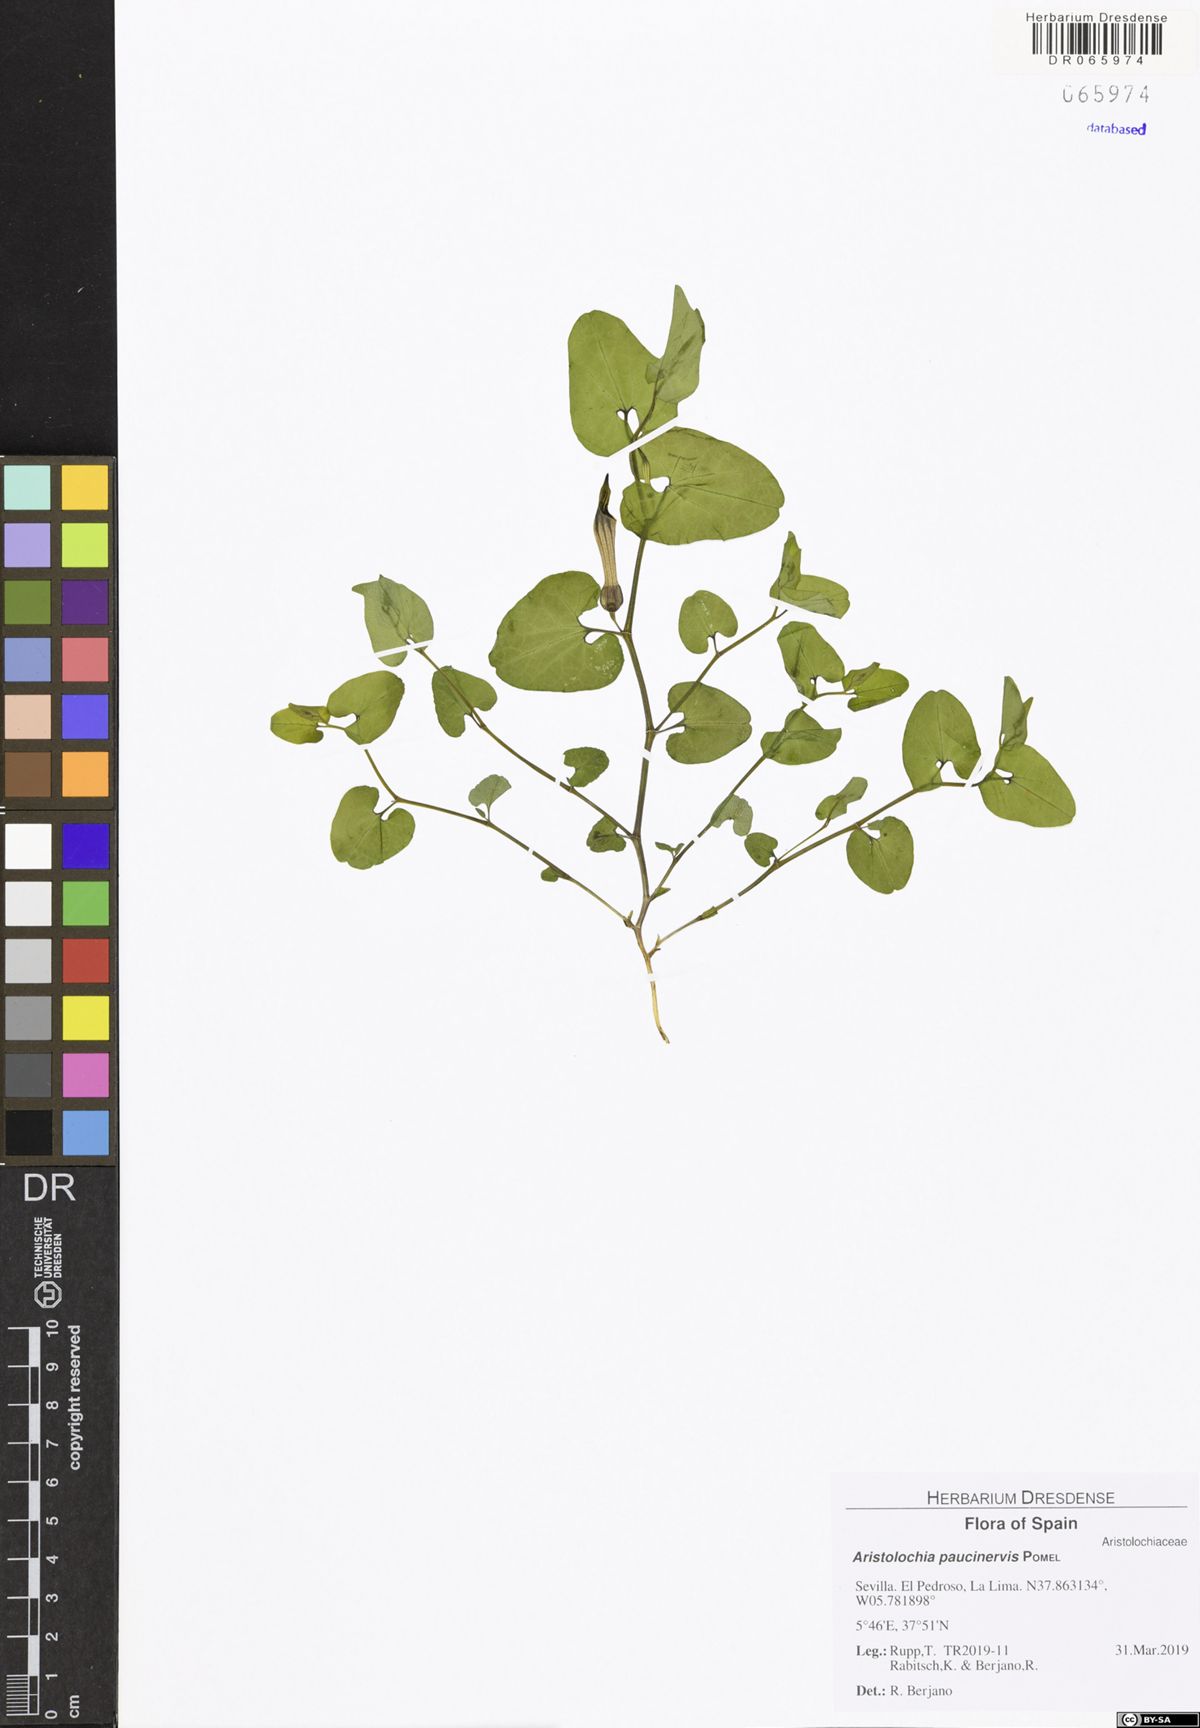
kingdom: Plantae
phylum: Tracheophyta
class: Magnoliopsida
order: Piperales
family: Aristolochiaceae
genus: Aristolochia
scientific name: Aristolochia paucinervis
